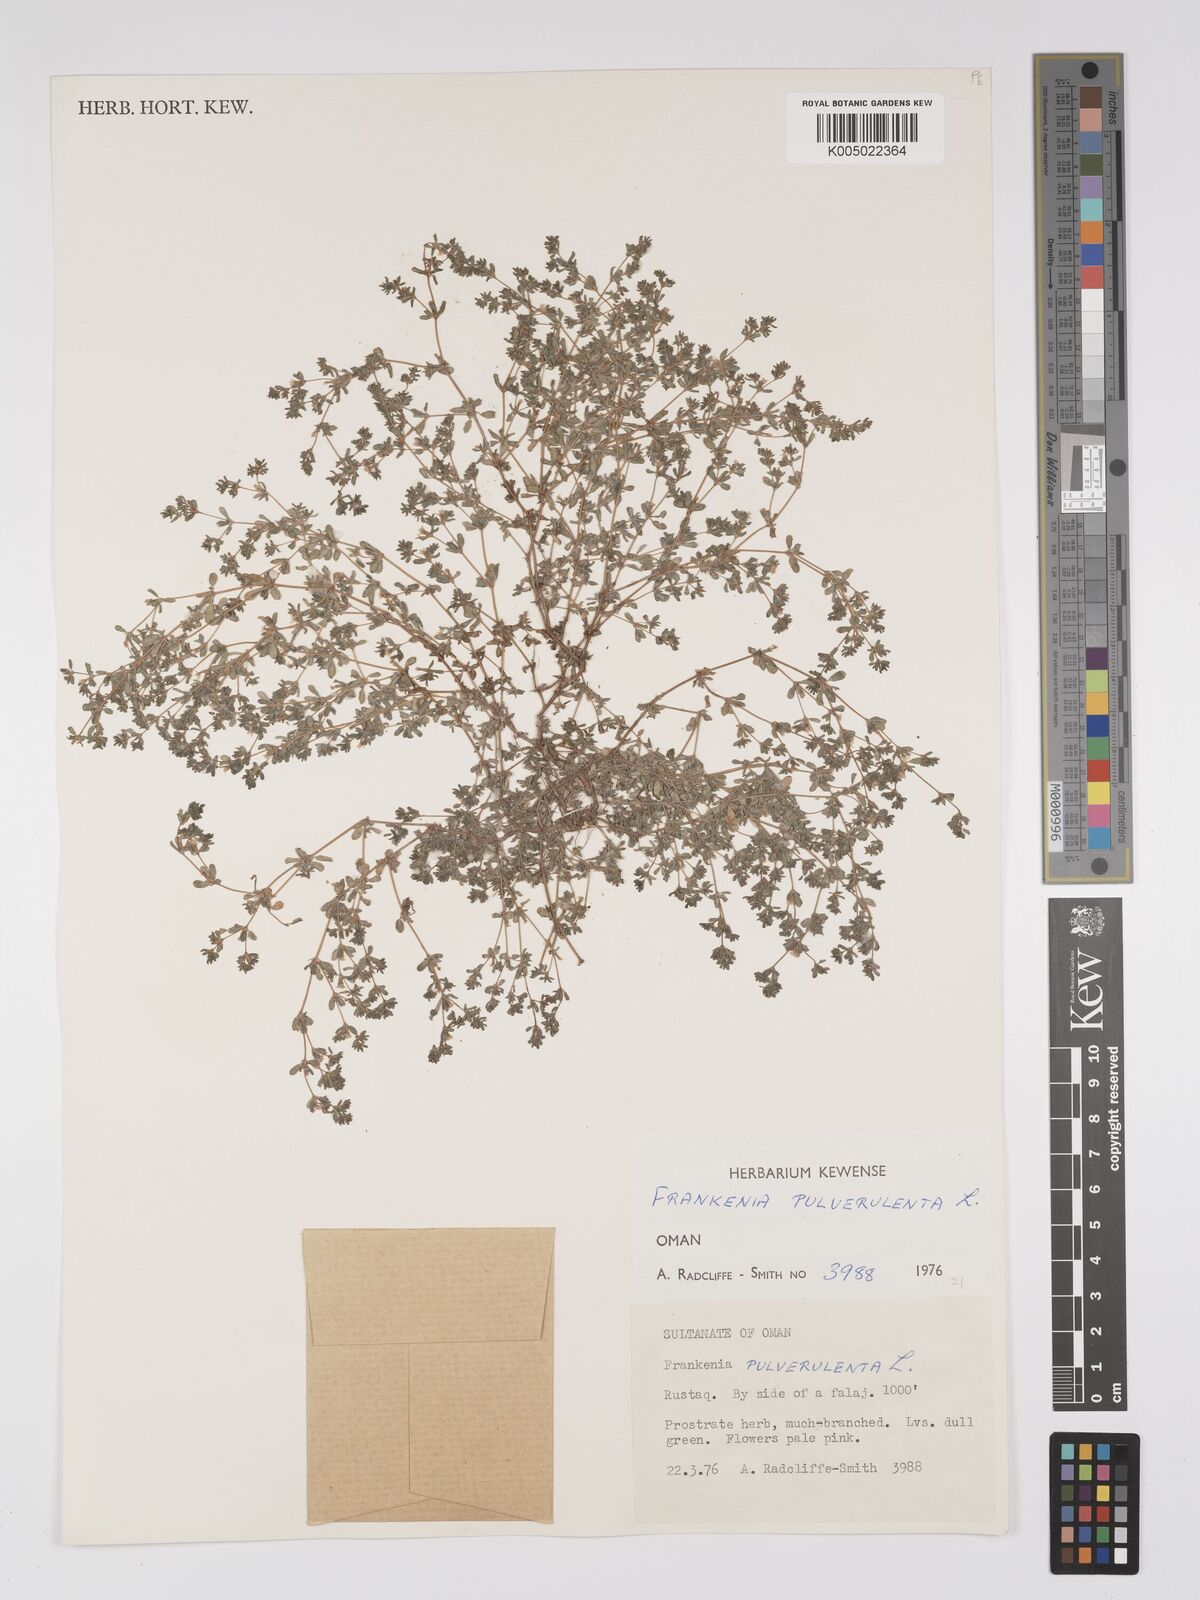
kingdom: Plantae
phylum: Tracheophyta
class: Magnoliopsida
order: Caryophyllales
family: Frankeniaceae
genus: Frankenia
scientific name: Frankenia pulverulenta
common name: European seaheath
